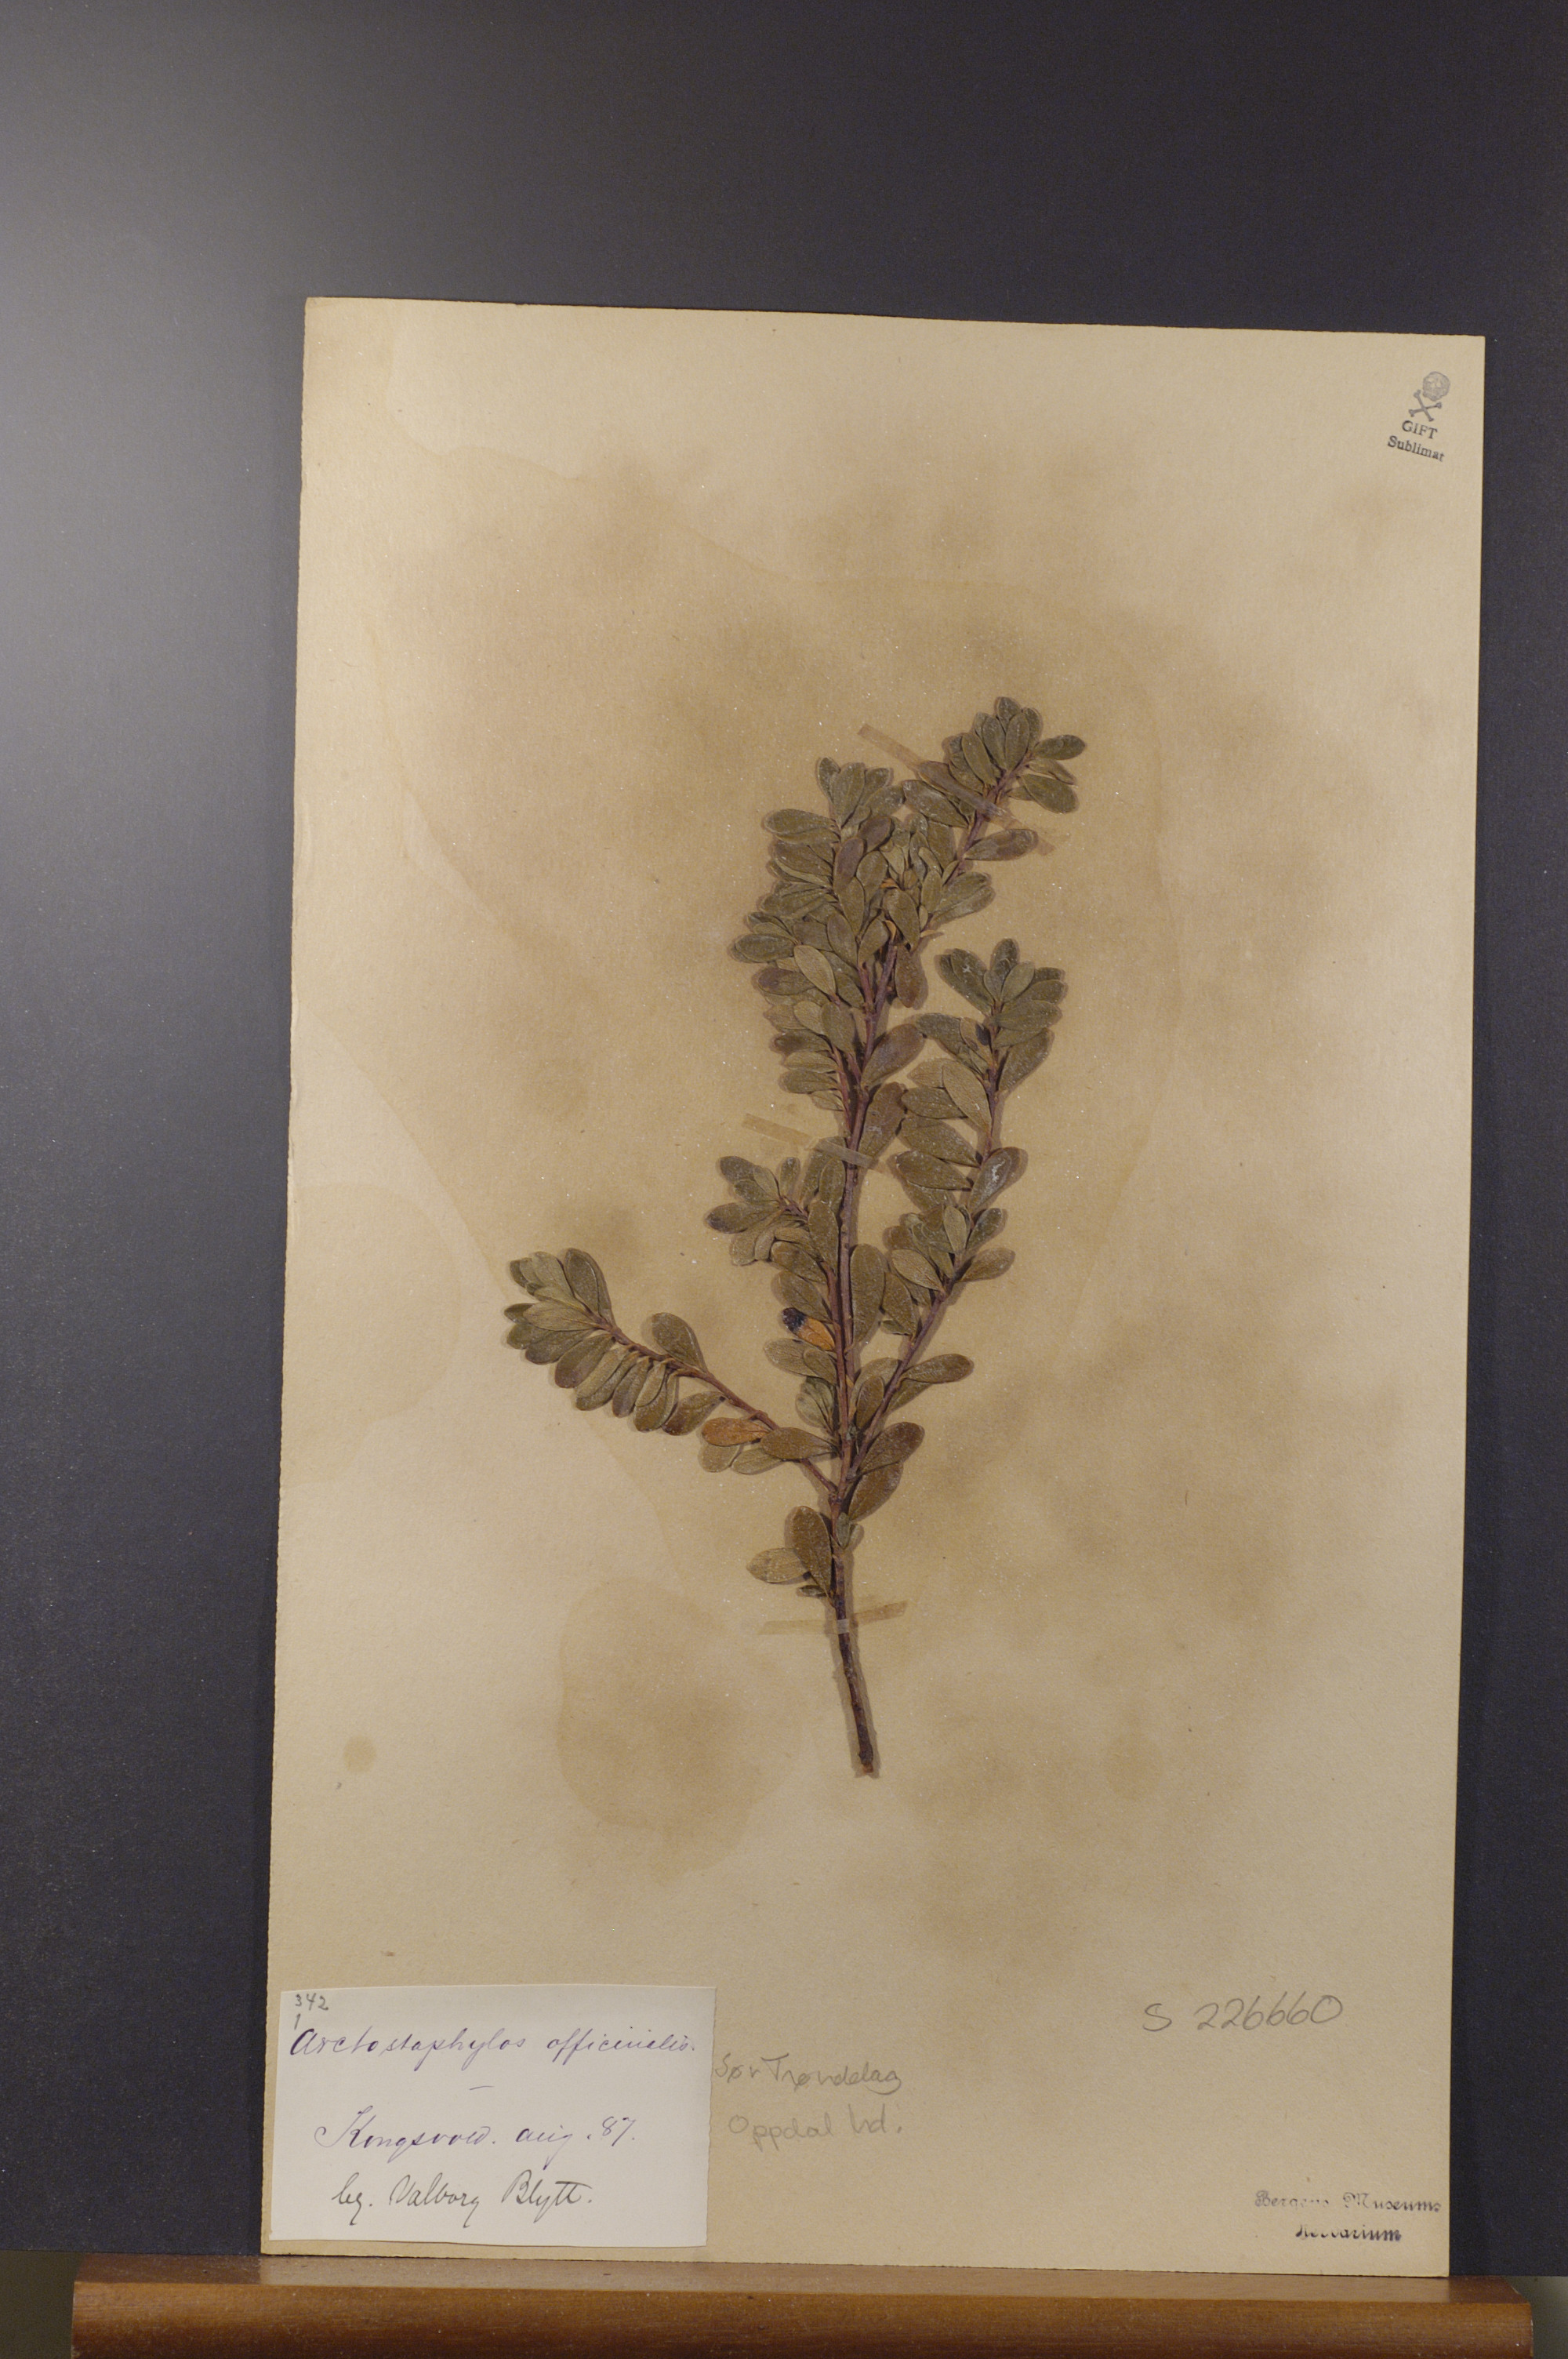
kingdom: Plantae
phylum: Tracheophyta
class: Magnoliopsida
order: Ericales
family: Ericaceae
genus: Arctostaphylos
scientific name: Arctostaphylos uva-ursi
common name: Bearberry
